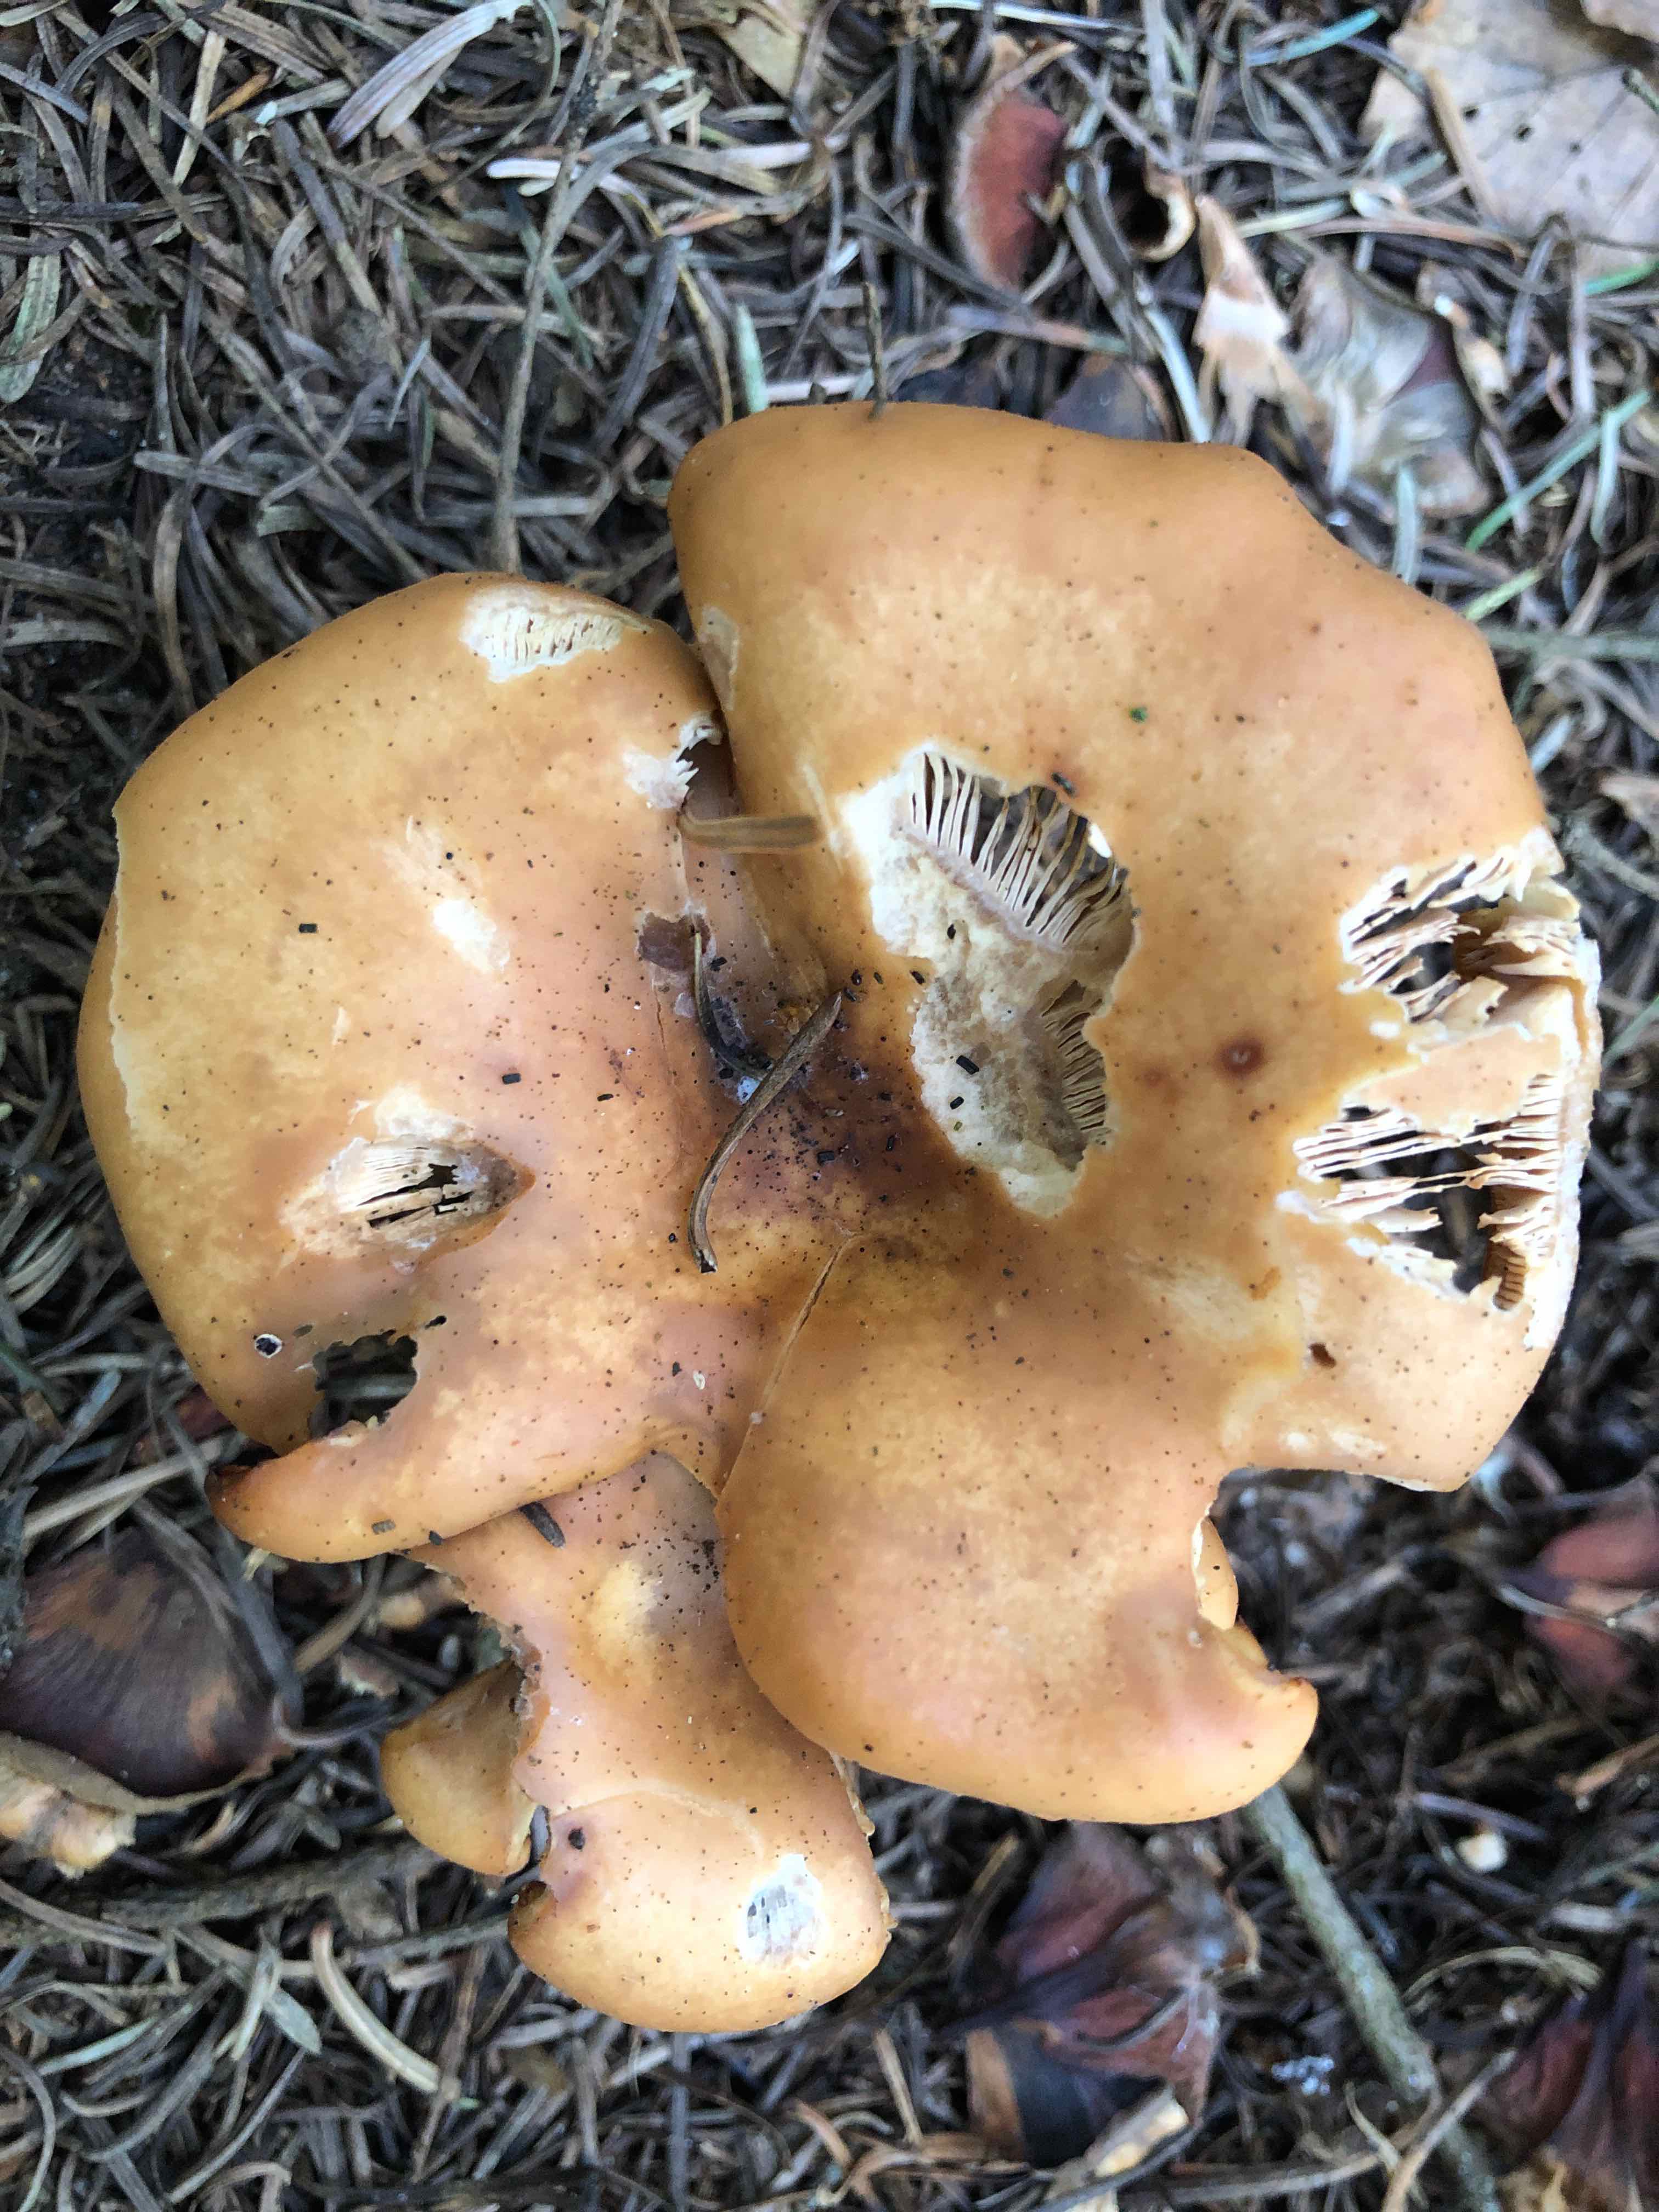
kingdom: Fungi
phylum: Basidiomycota
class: Agaricomycetes
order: Agaricales
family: Tricholomataceae
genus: Paralepista
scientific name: Paralepista flaccida
